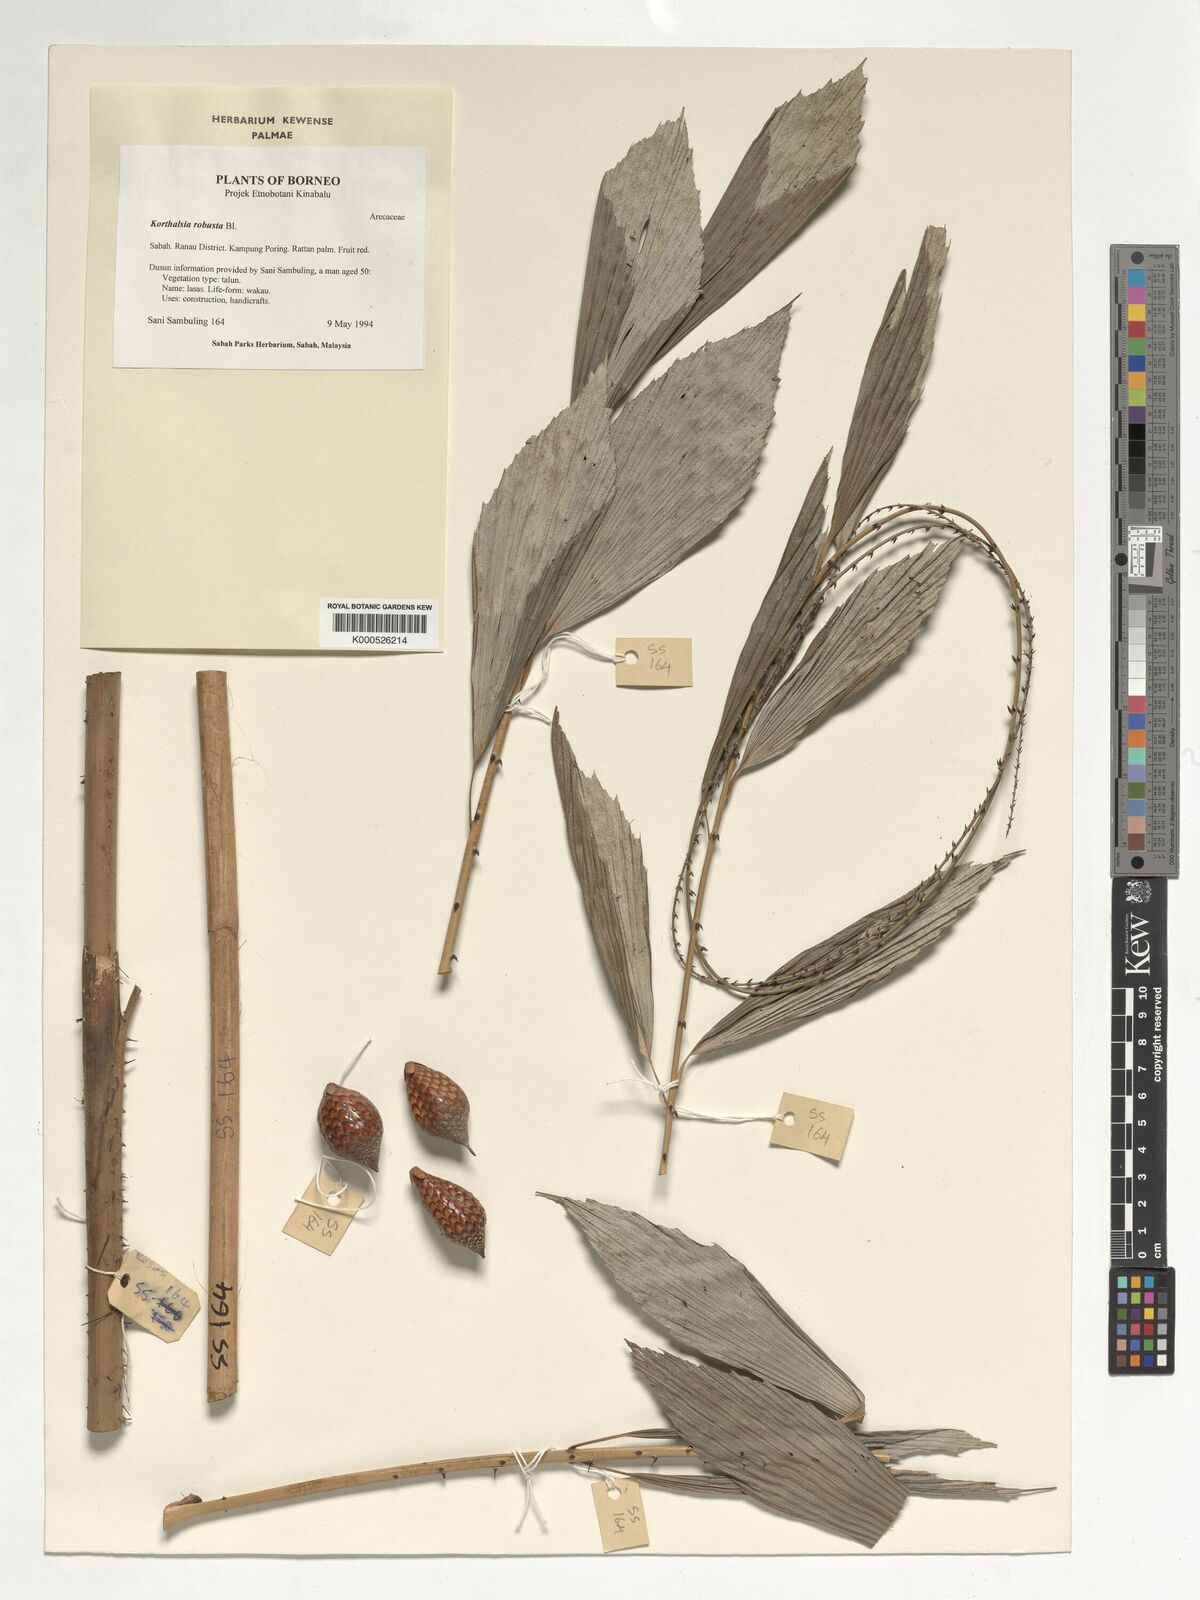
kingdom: Plantae
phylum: Tracheophyta
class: Liliopsida
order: Arecales
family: Arecaceae
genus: Korthalsia
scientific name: Korthalsia robusta
